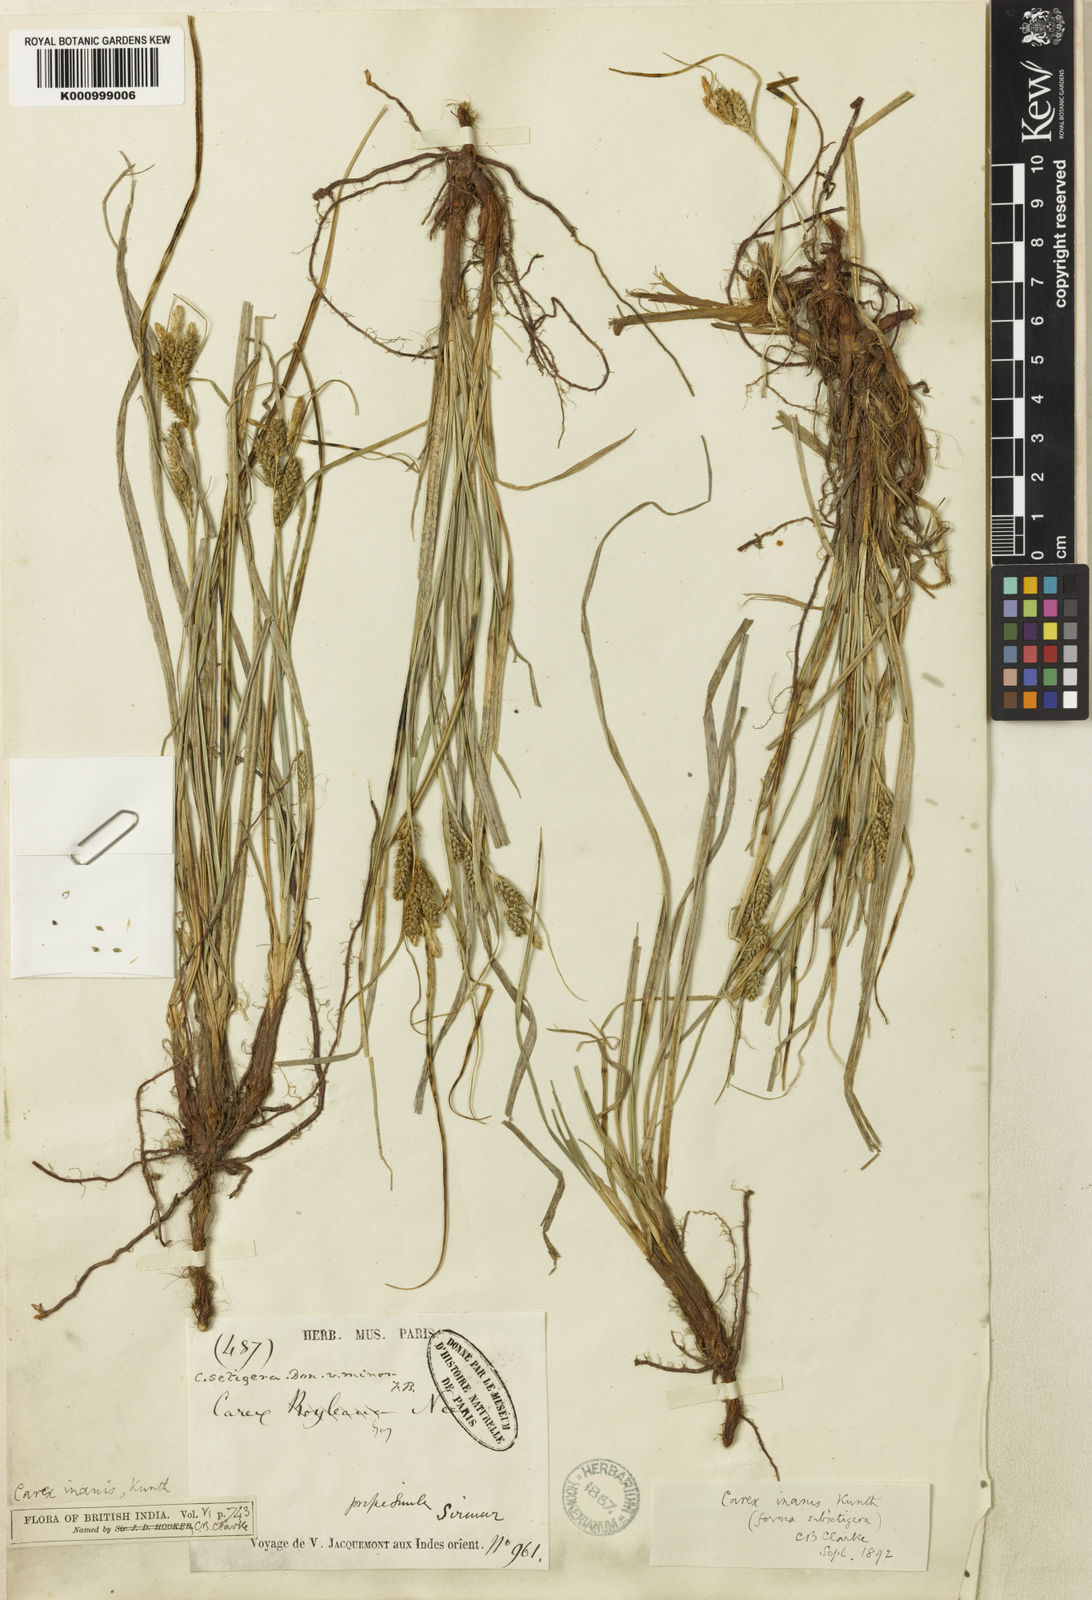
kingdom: Plantae
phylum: Tracheophyta
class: Liliopsida
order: Poales
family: Cyperaceae
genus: Carex
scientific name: Carex inanis
